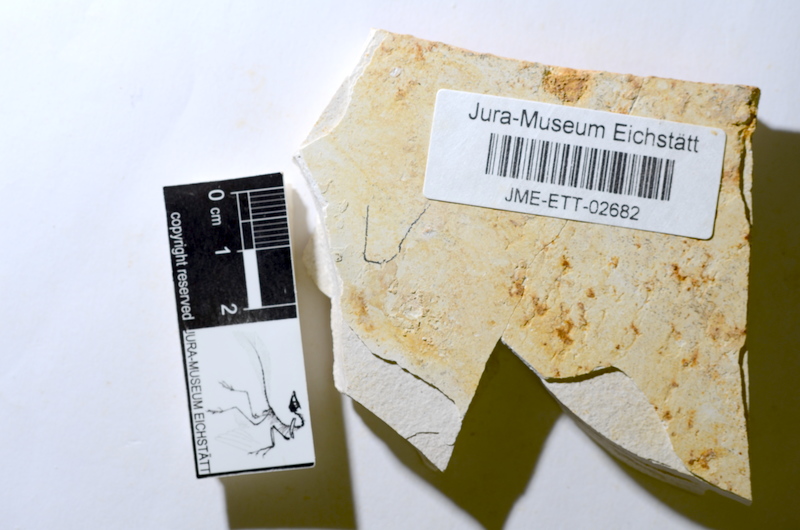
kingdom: Animalia
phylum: Chordata
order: Salmoniformes
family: Orthogonikleithridae
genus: Orthogonikleithrus
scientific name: Orthogonikleithrus hoelli
